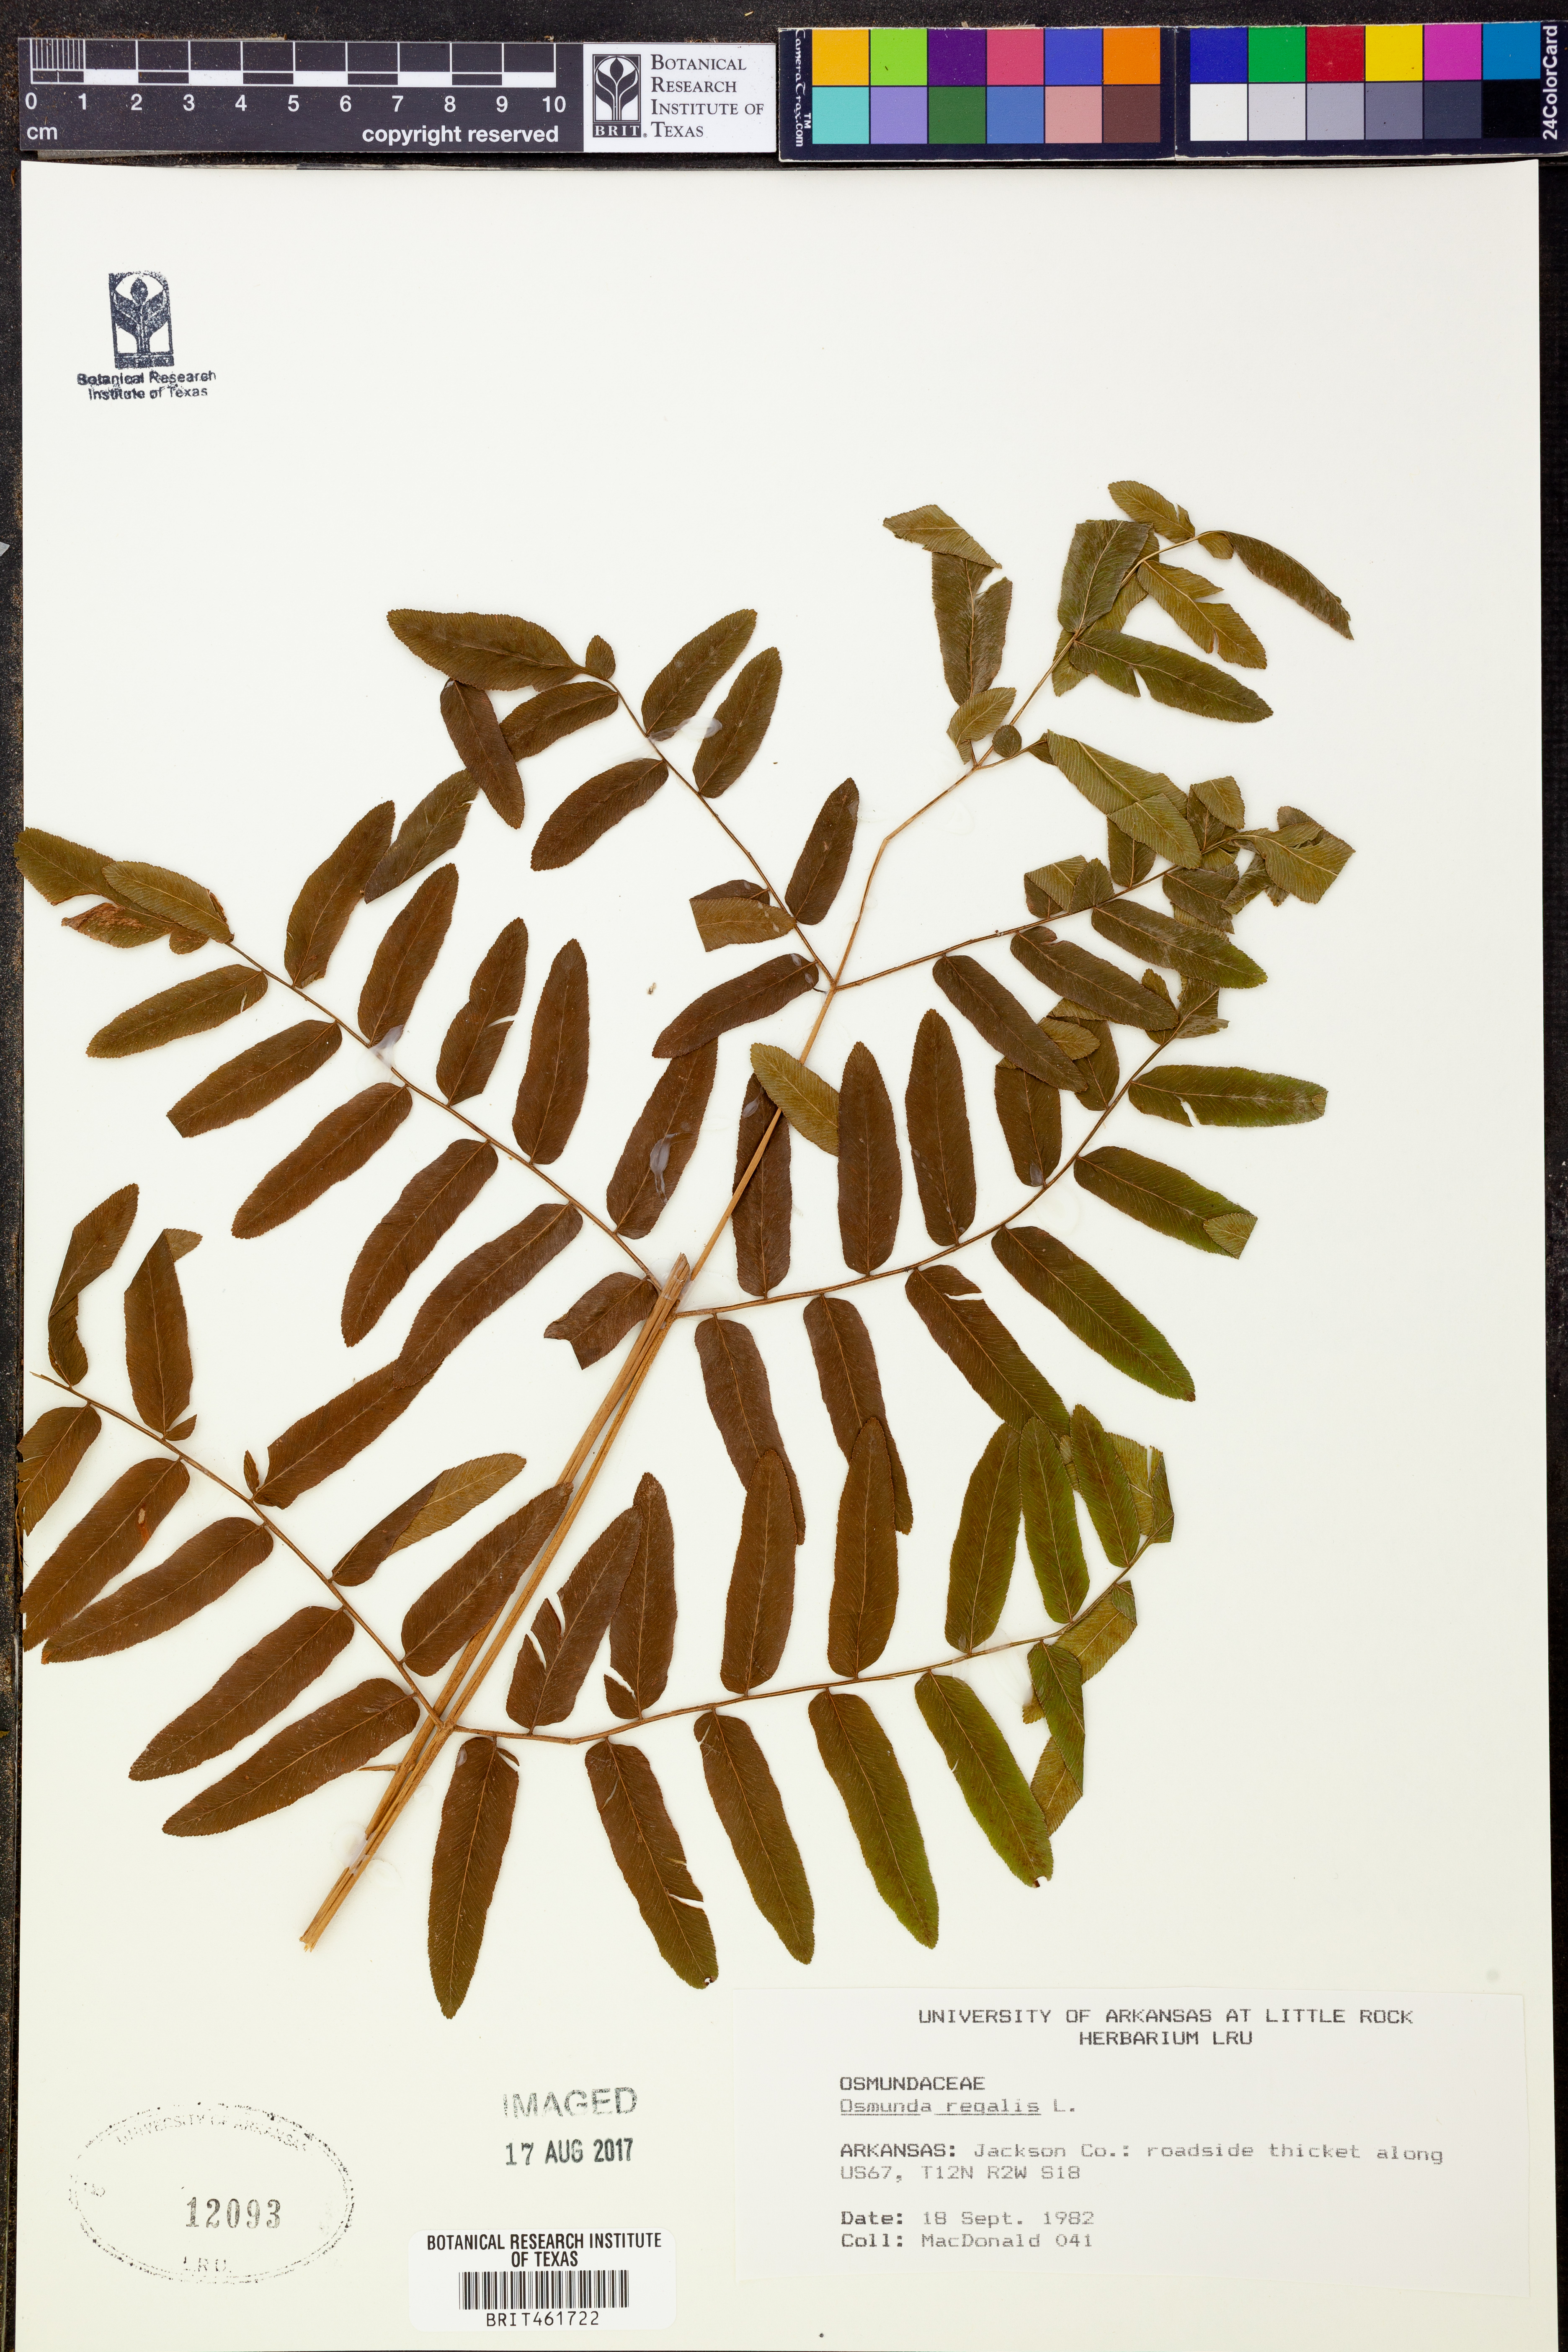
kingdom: Plantae
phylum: Tracheophyta
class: Polypodiopsida
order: Osmundales
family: Osmundaceae
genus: Osmunda
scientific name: Osmunda regalis
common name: Royal fern
